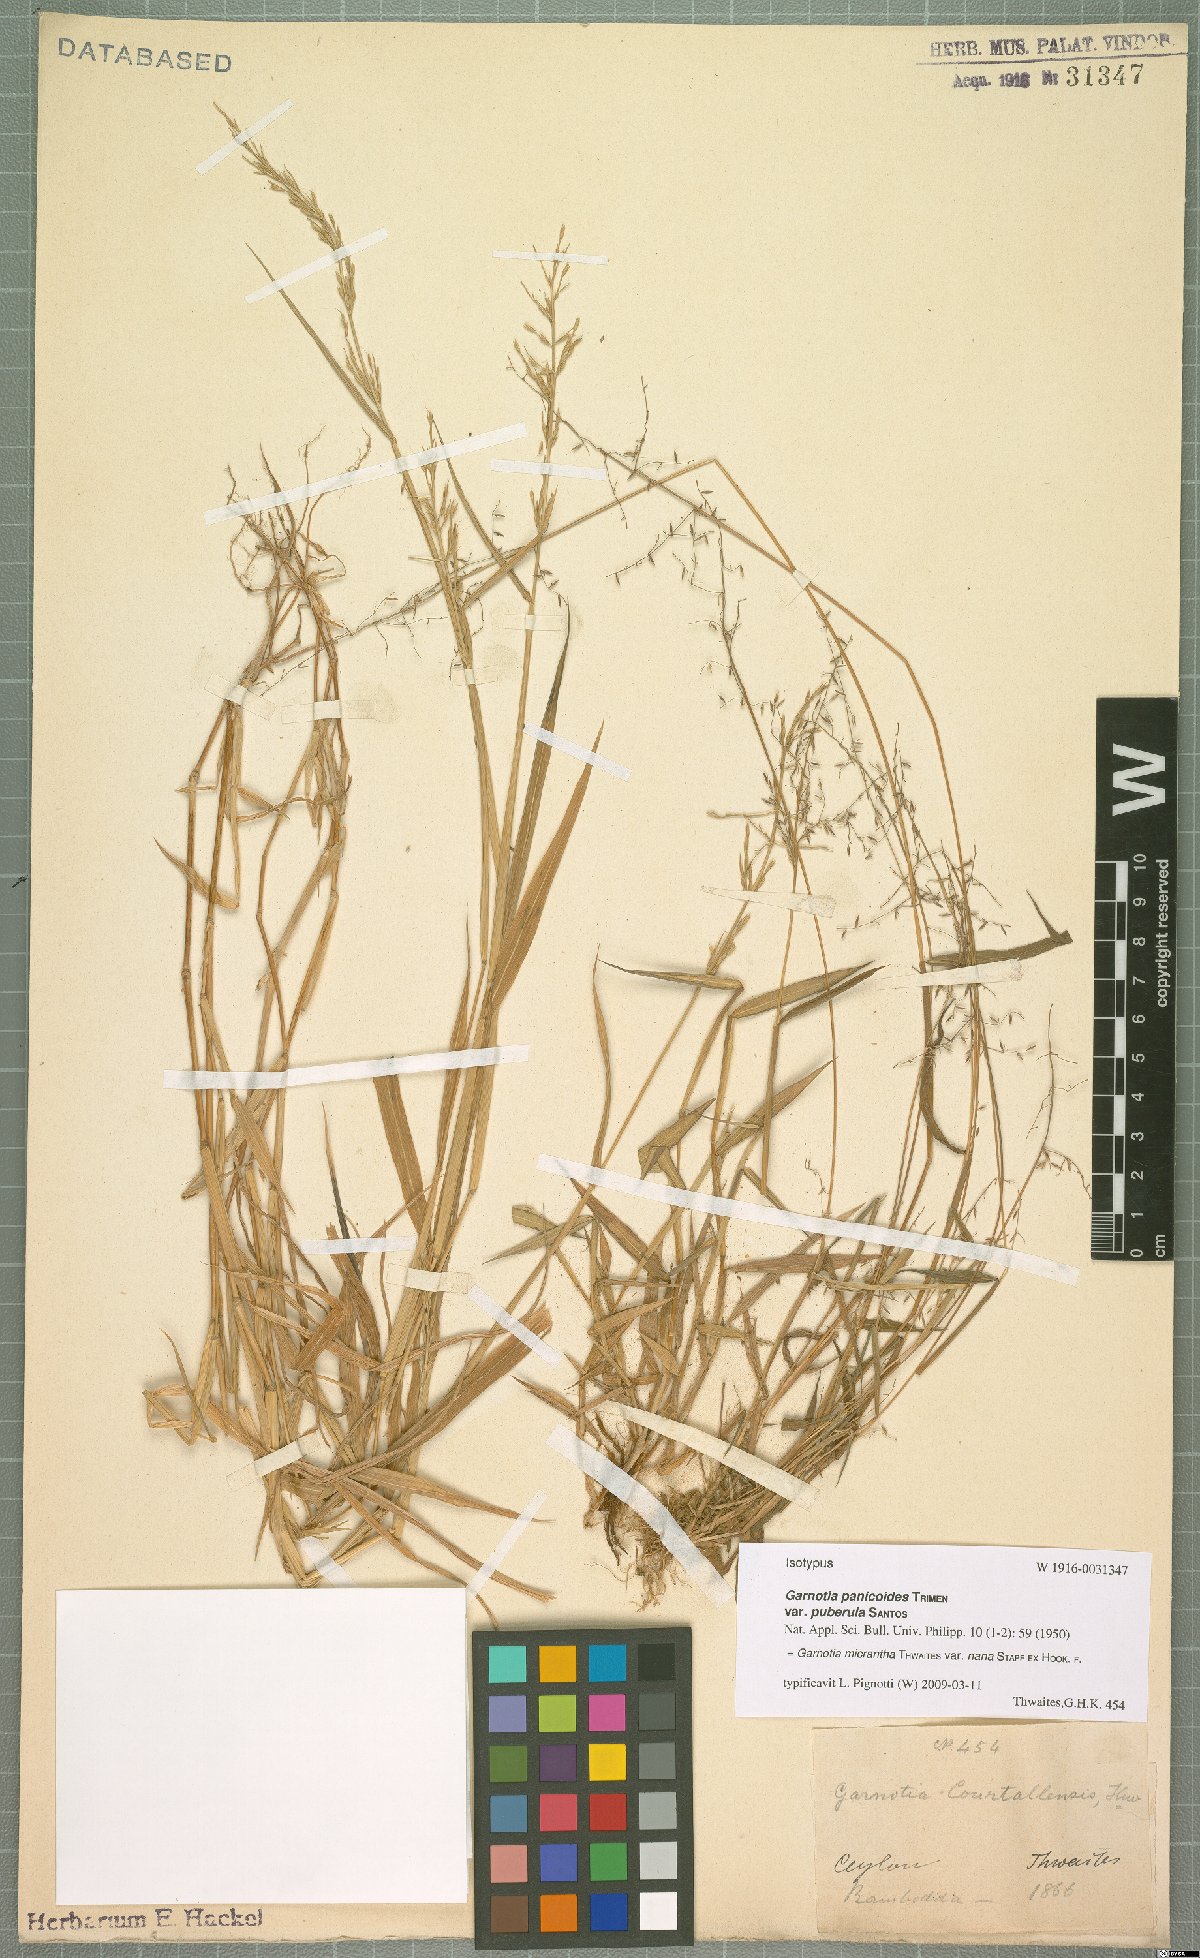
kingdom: Plantae
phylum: Tracheophyta
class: Liliopsida
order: Poales
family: Poaceae
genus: Garnotia
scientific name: Garnotia micrantha
